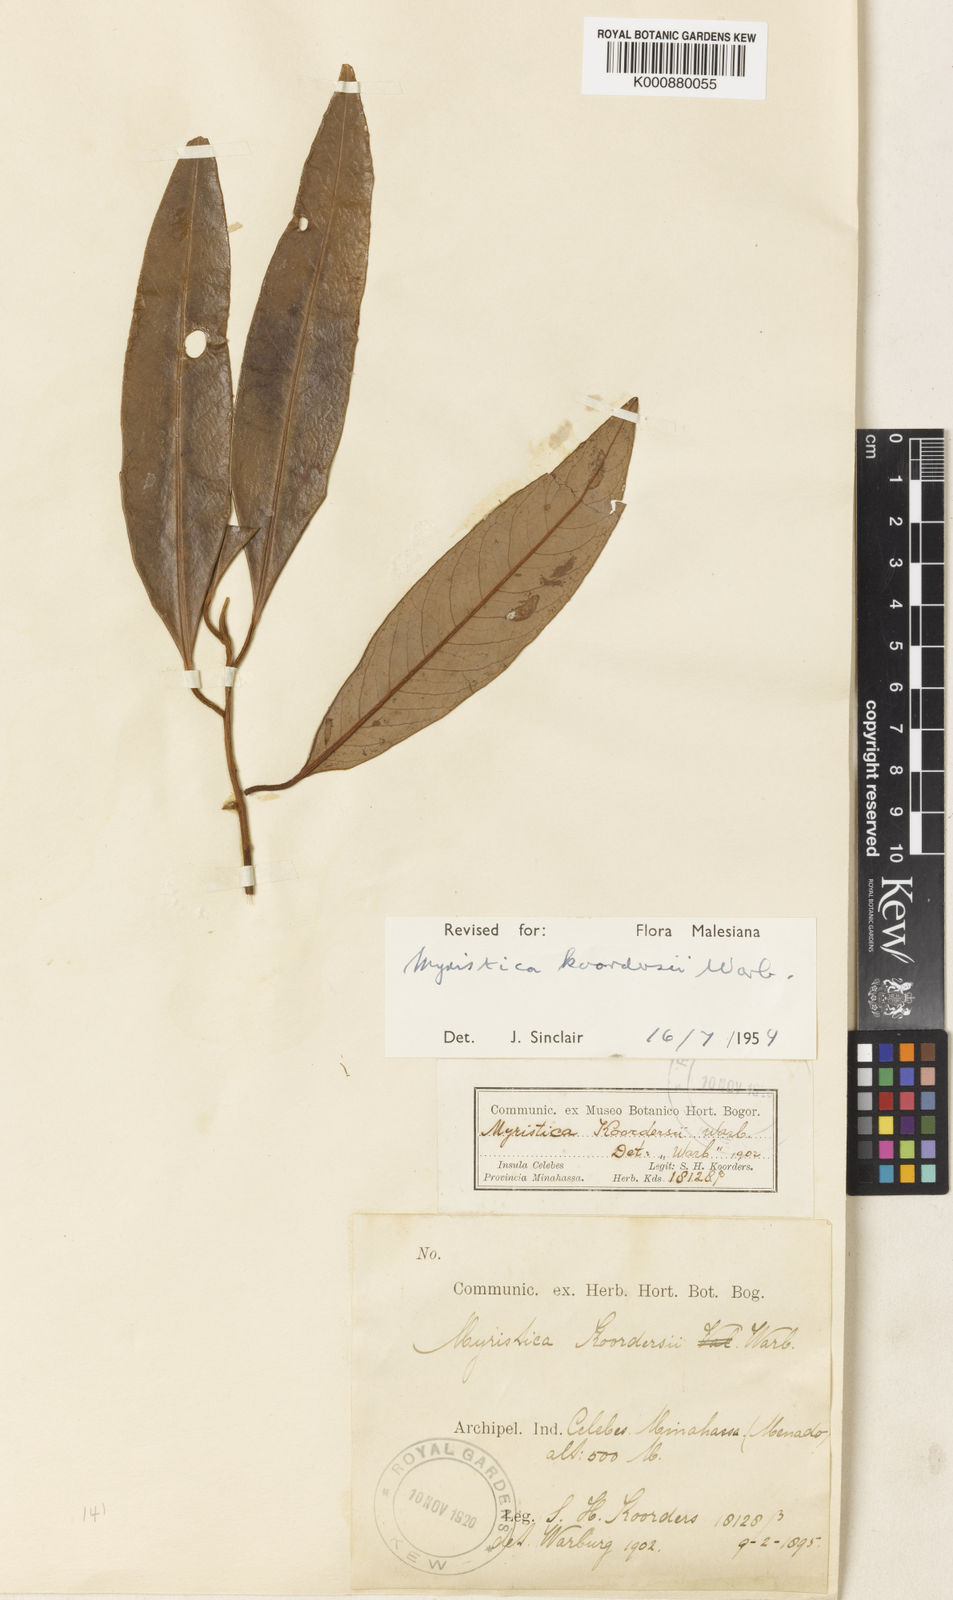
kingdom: Plantae
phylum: Tracheophyta
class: Magnoliopsida
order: Magnoliales
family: Myristicaceae
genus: Myristica
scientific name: Myristica koordersii
